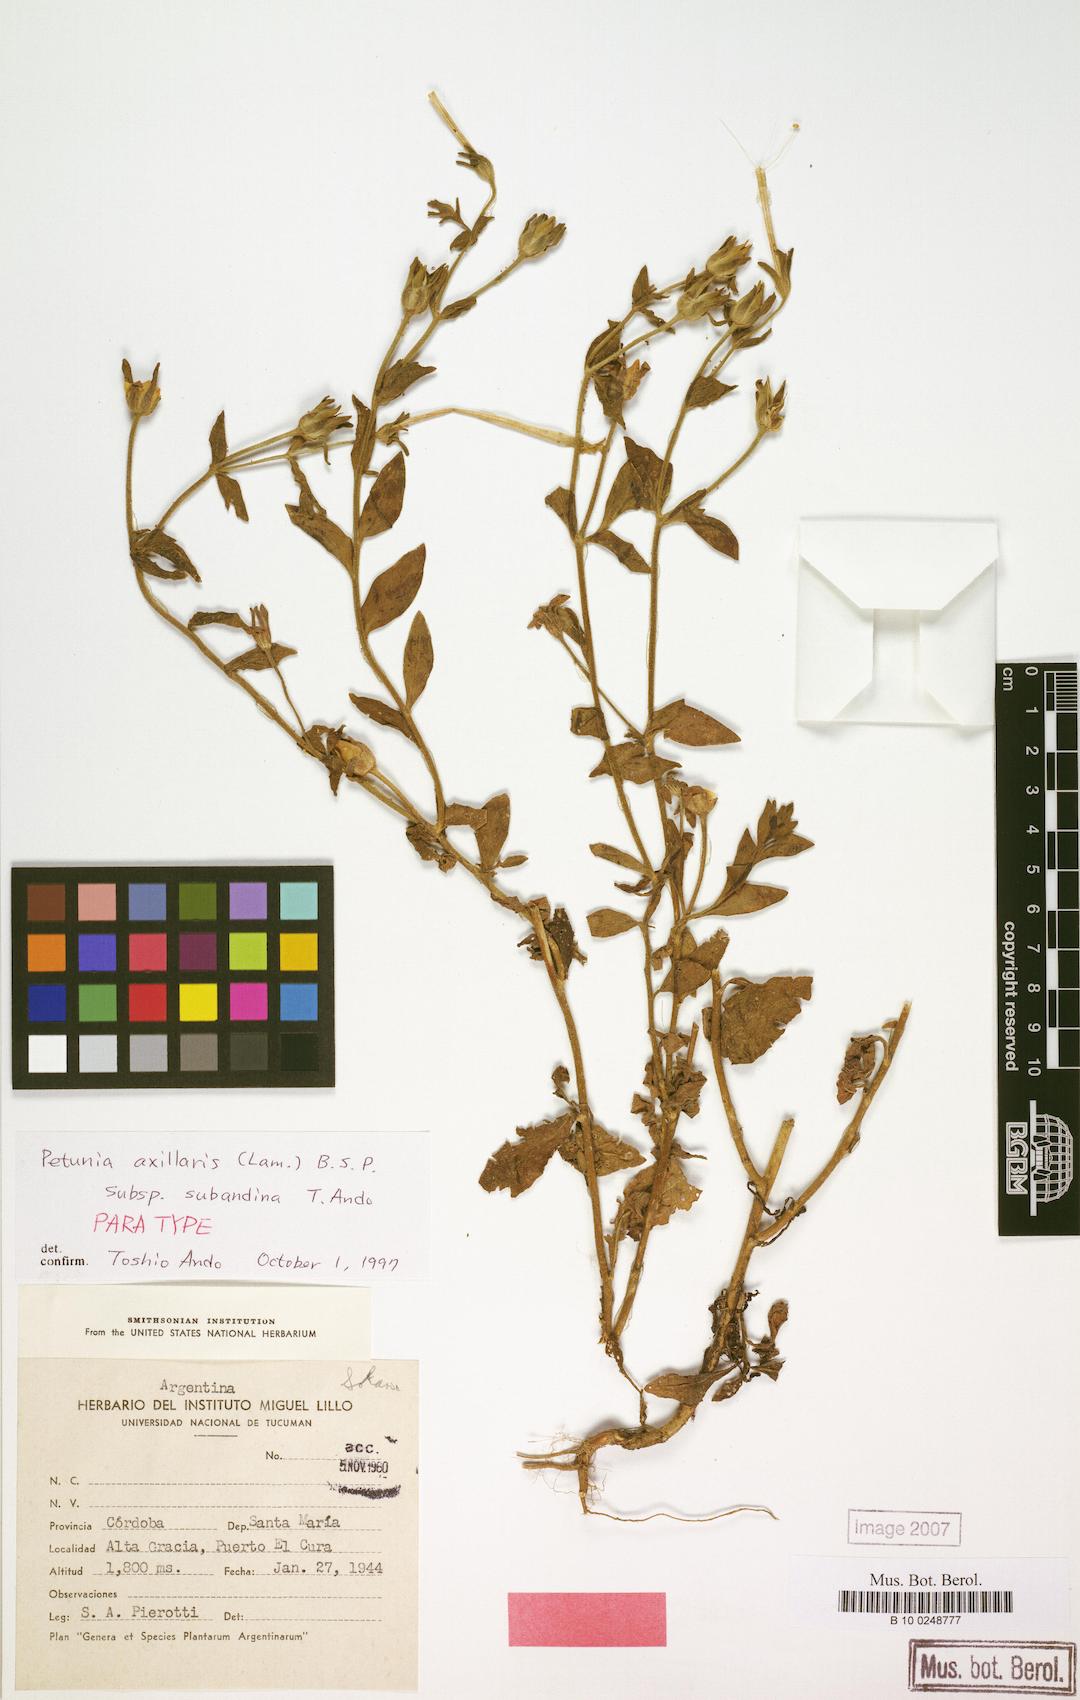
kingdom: Plantae
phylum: Tracheophyta
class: Magnoliopsida
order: Solanales
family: Solanaceae
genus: Petunia
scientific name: Petunia axillaris
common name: Large white petunia
